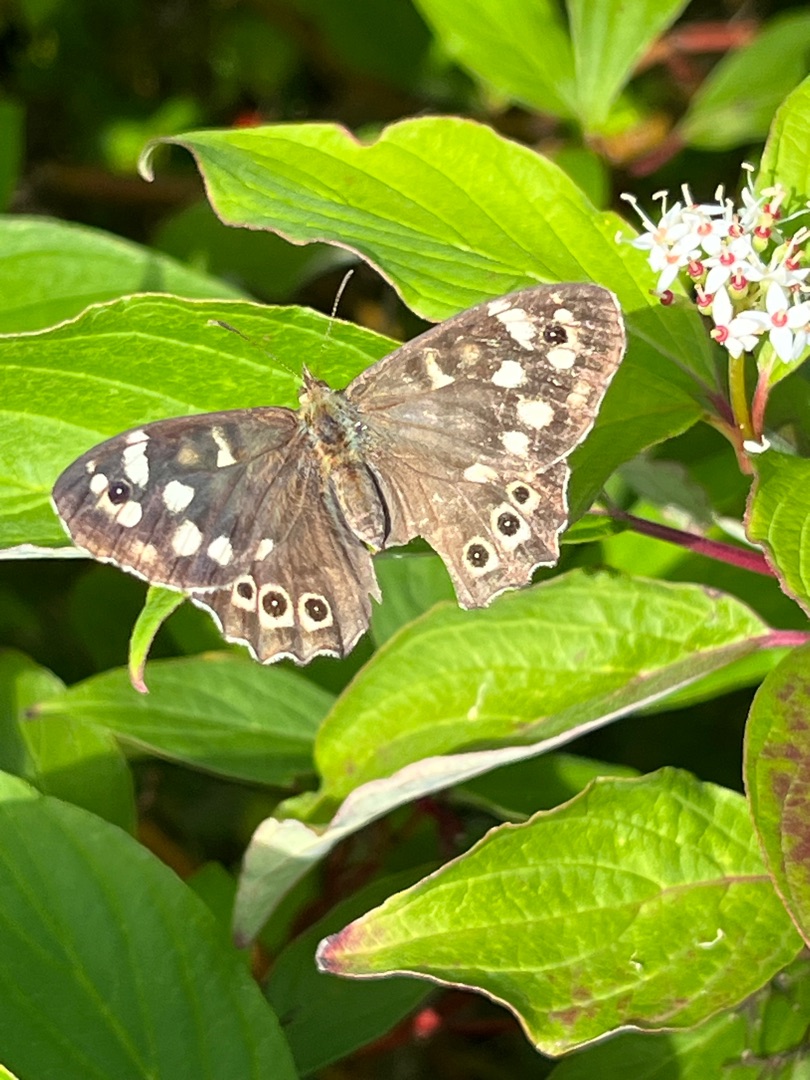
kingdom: Animalia
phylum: Arthropoda
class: Insecta
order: Lepidoptera
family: Nymphalidae
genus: Pararge
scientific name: Pararge aegeria
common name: Skovrandøje
